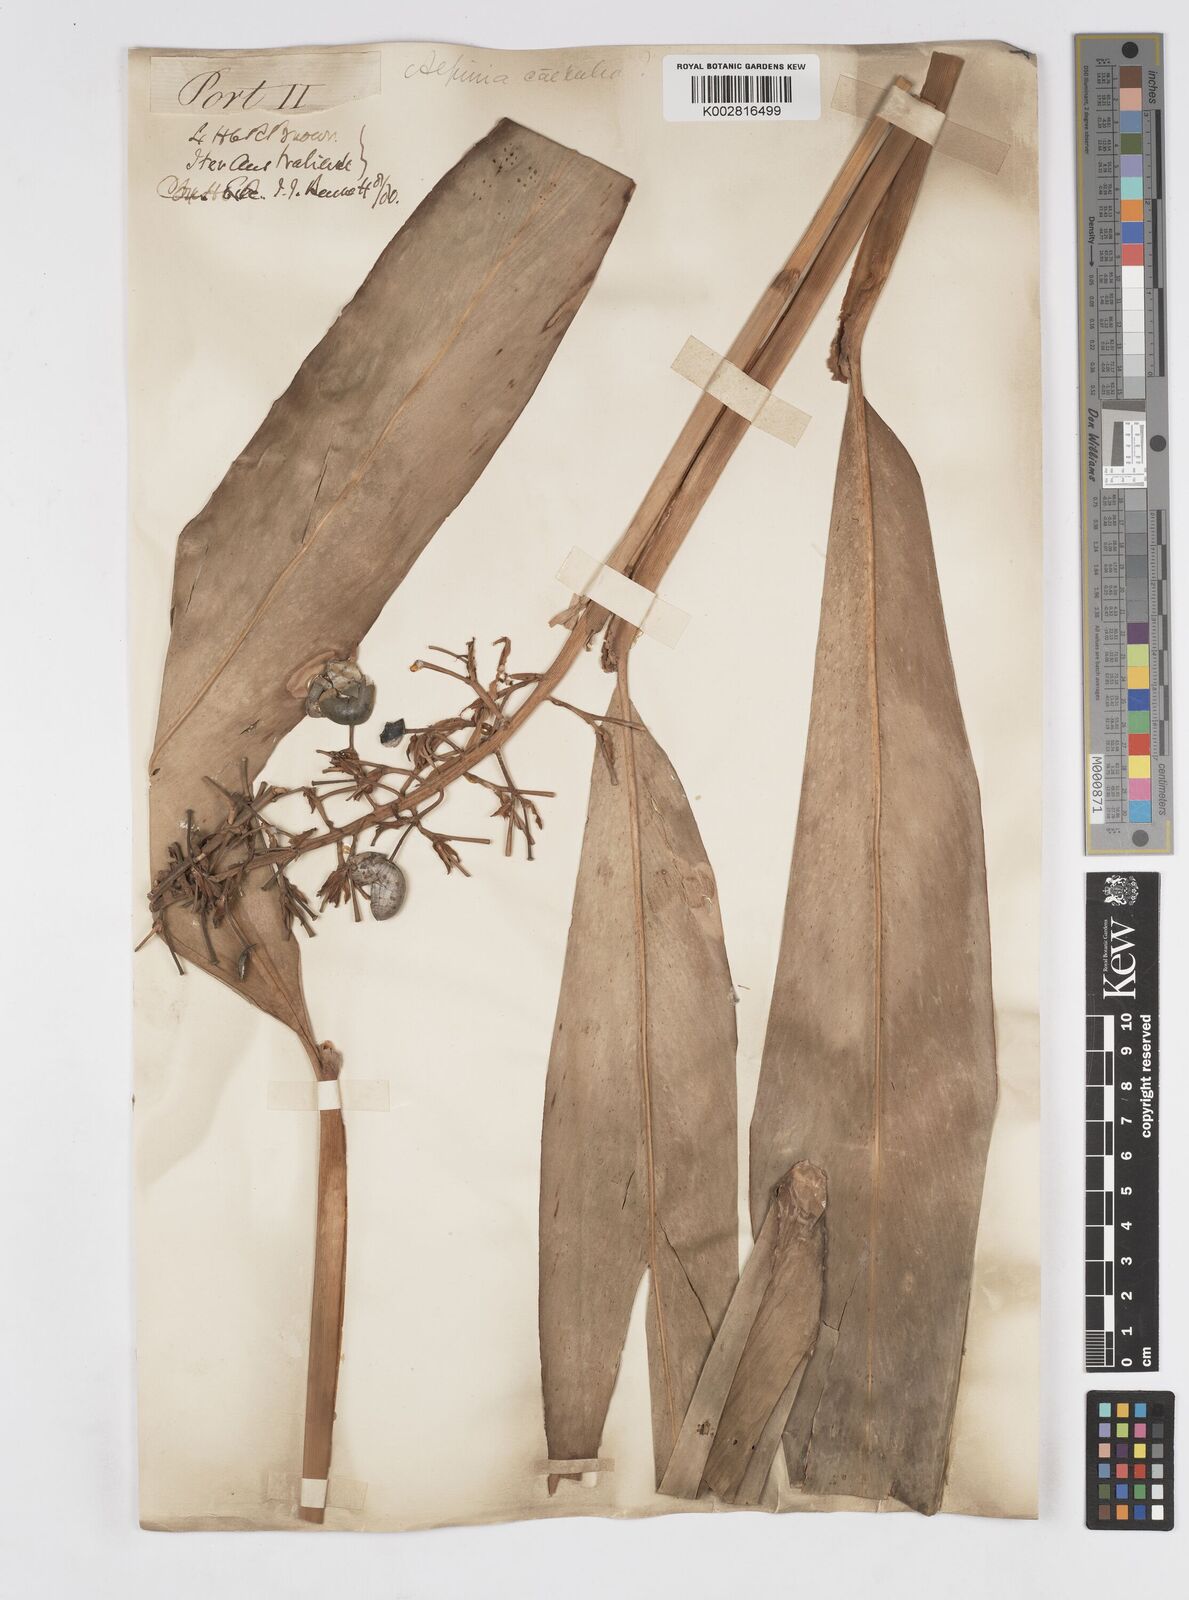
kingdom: Plantae
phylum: Tracheophyta
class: Liliopsida
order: Zingiberales
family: Zingiberaceae
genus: Alpinia
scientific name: Alpinia
